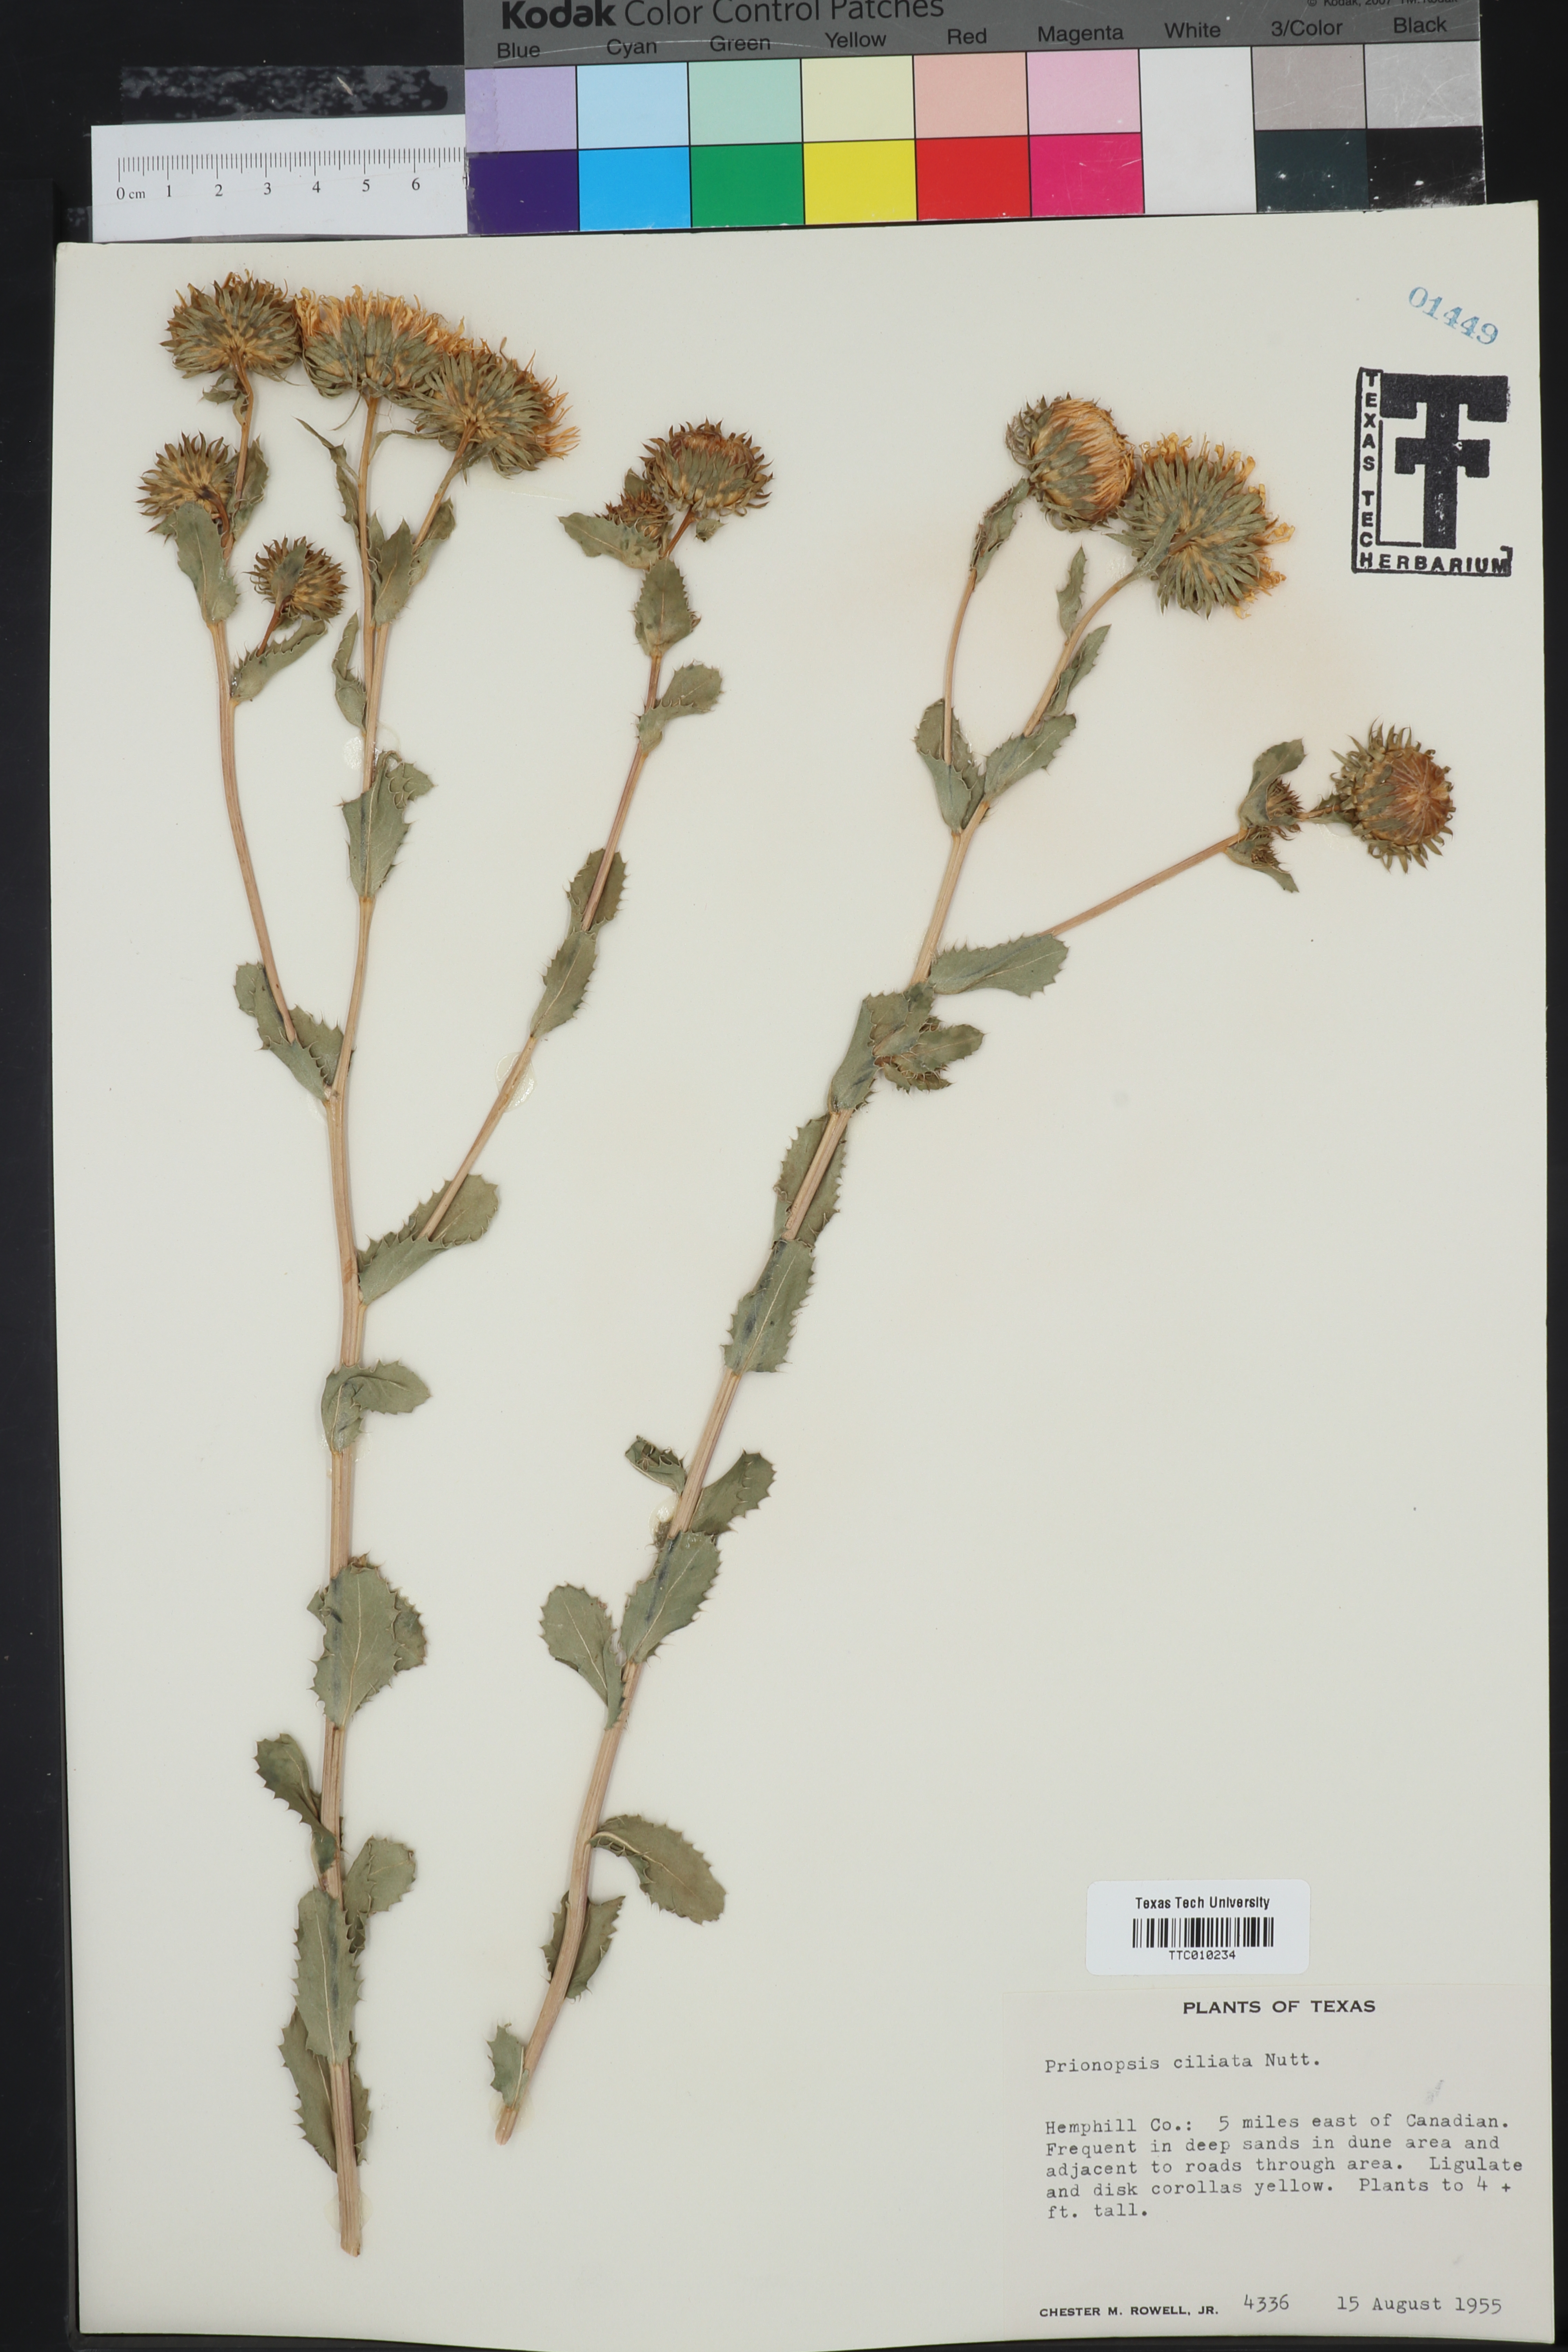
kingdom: Plantae
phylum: Tracheophyta
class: Magnoliopsida
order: Asterales
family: Asteraceae
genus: Grindelia
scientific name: Grindelia ciliata
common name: Goldenweed
